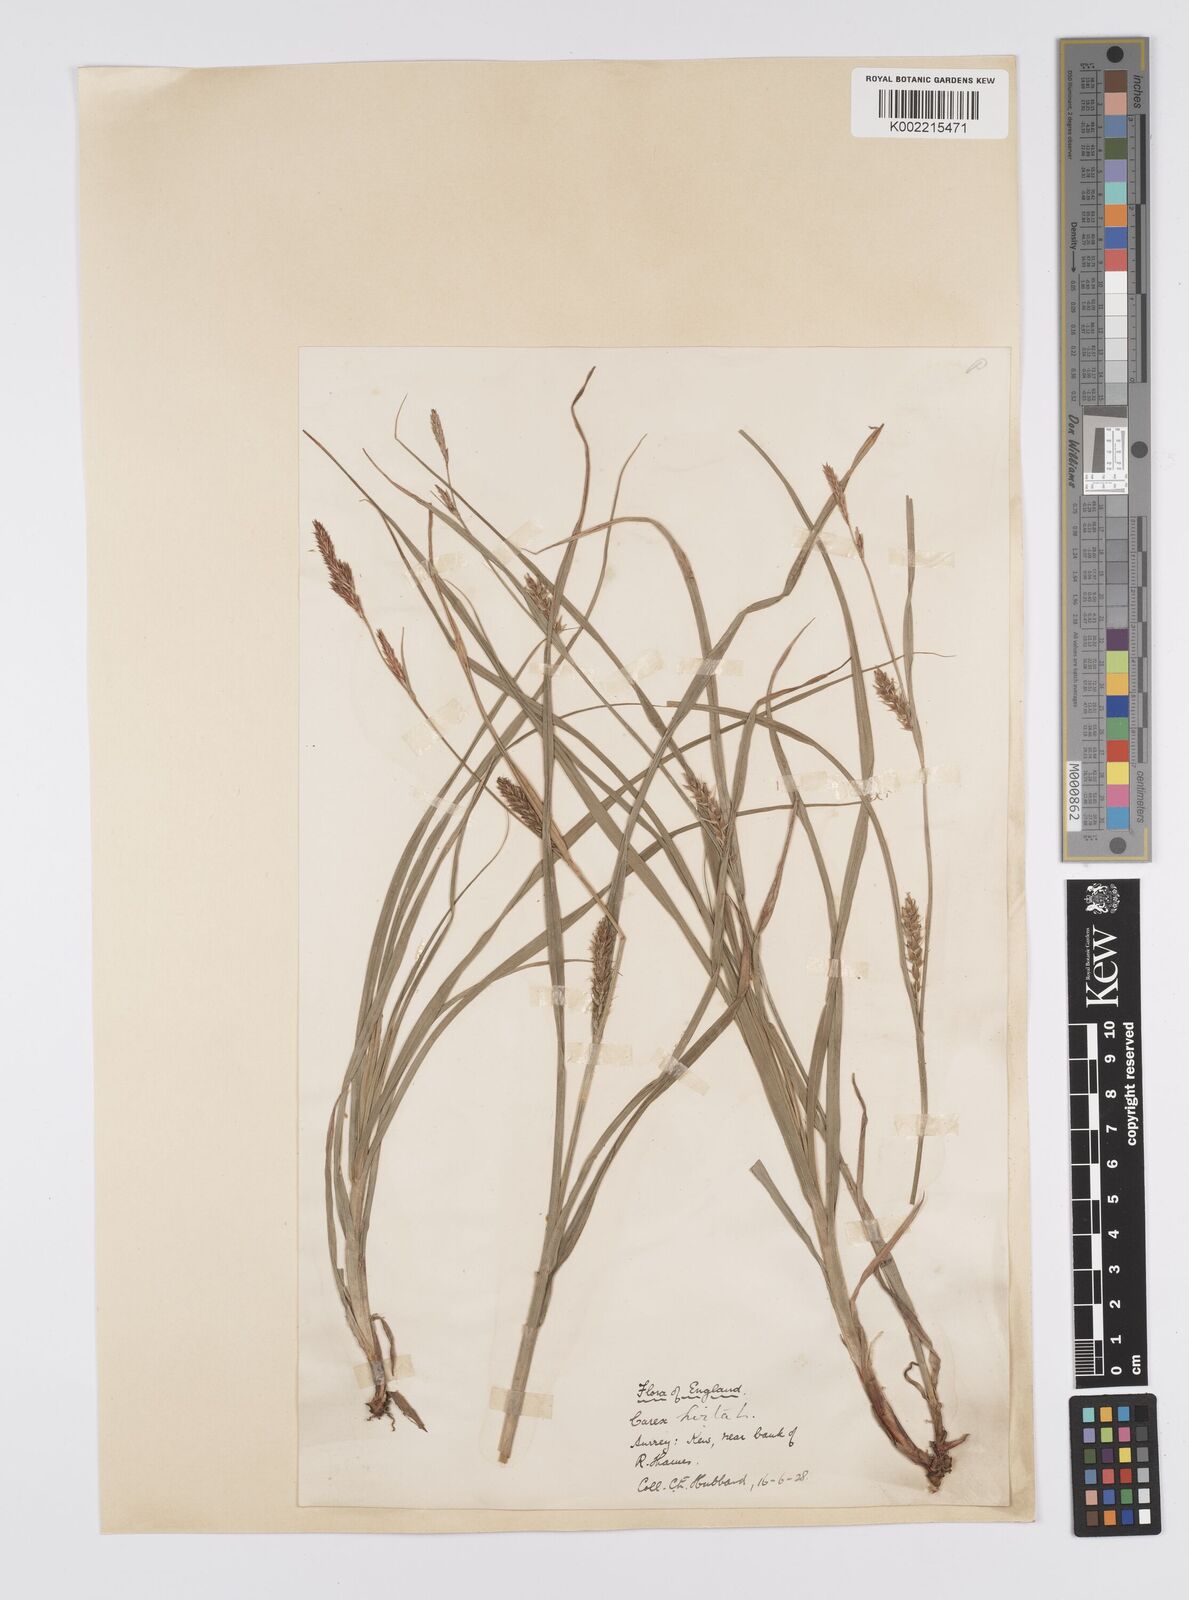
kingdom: Plantae
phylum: Tracheophyta
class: Liliopsida
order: Poales
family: Cyperaceae
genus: Carex
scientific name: Carex hirta
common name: Hairy sedge
